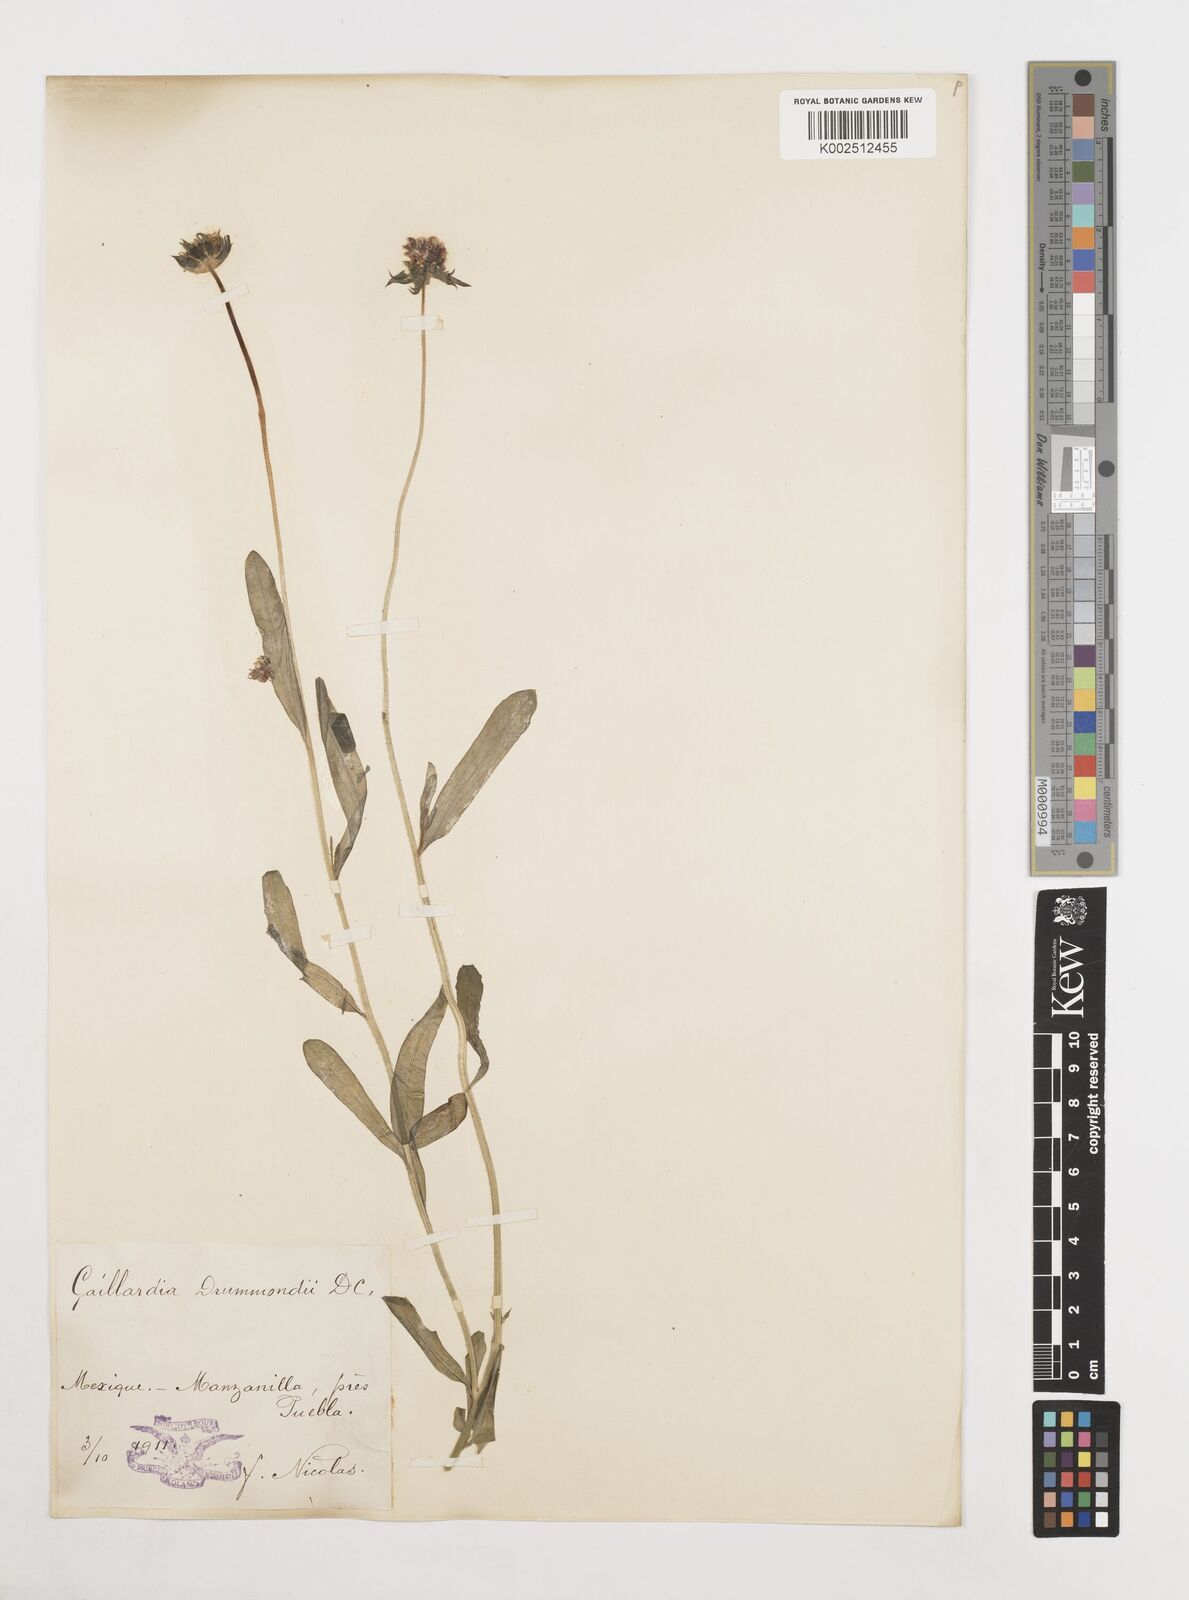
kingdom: Plantae
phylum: Tracheophyta
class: Magnoliopsida
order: Asterales
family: Asteraceae
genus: Gaillardia
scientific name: Gaillardia pulchella
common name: Firewheel
